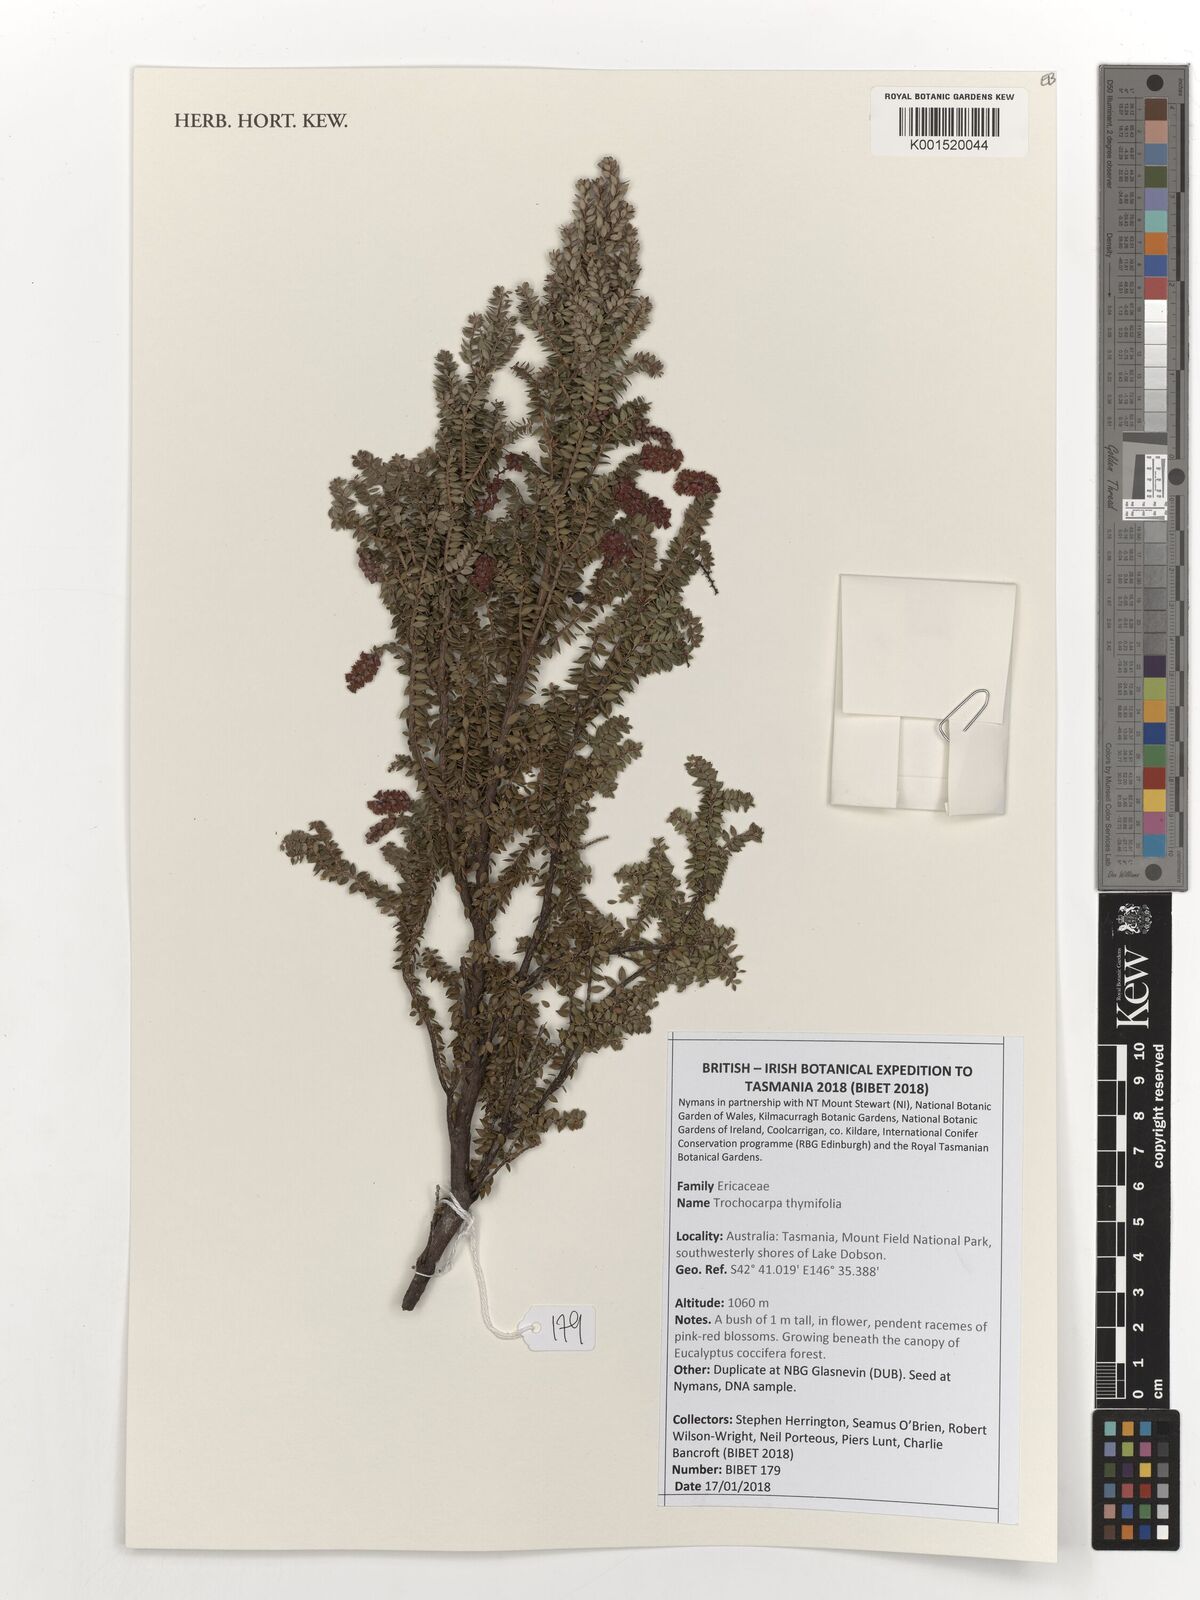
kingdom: Plantae
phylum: Tracheophyta
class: Magnoliopsida
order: Ericales
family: Ericaceae
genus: Trochocarpa
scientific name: Trochocarpa thymifolia
